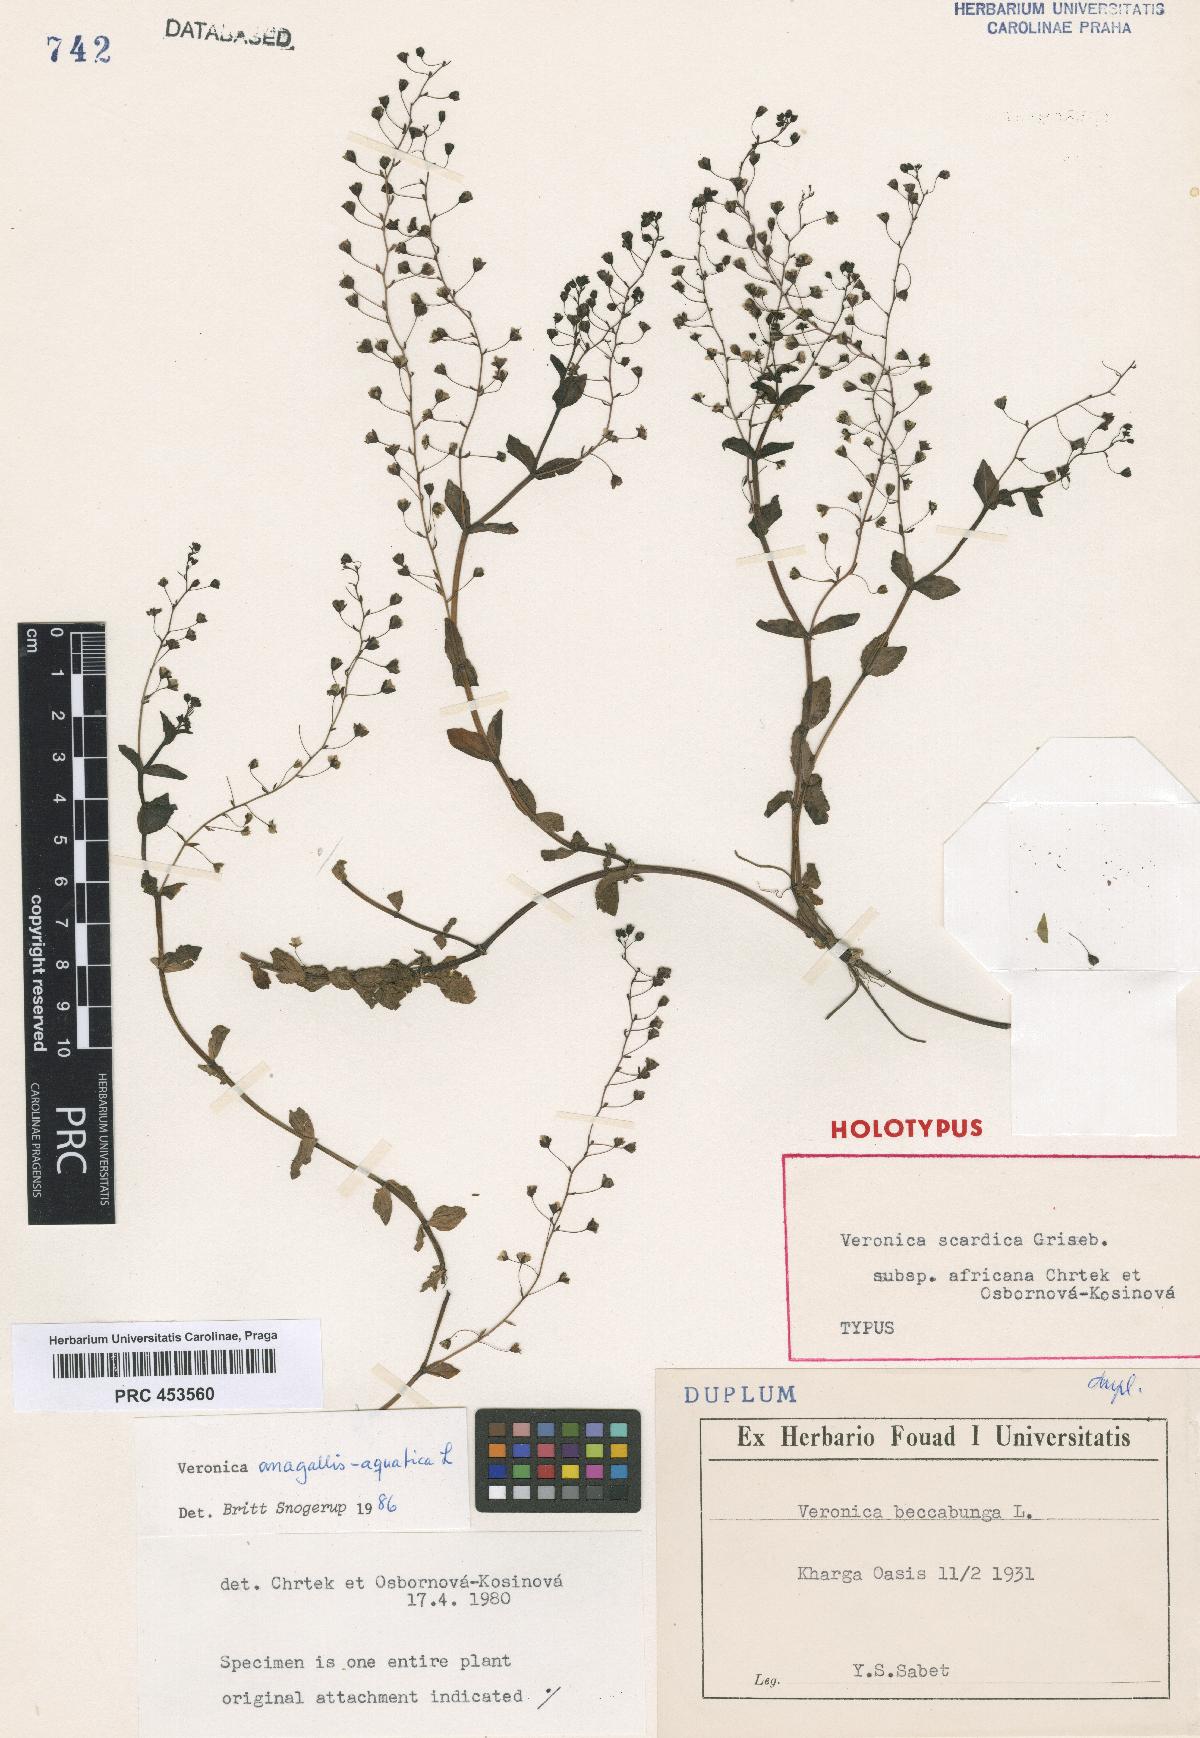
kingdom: Plantae
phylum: Tracheophyta
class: Magnoliopsida
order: Lamiales
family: Plantaginaceae
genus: Veronica
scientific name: Veronica anagallis-aquatica
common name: Water speedwell
